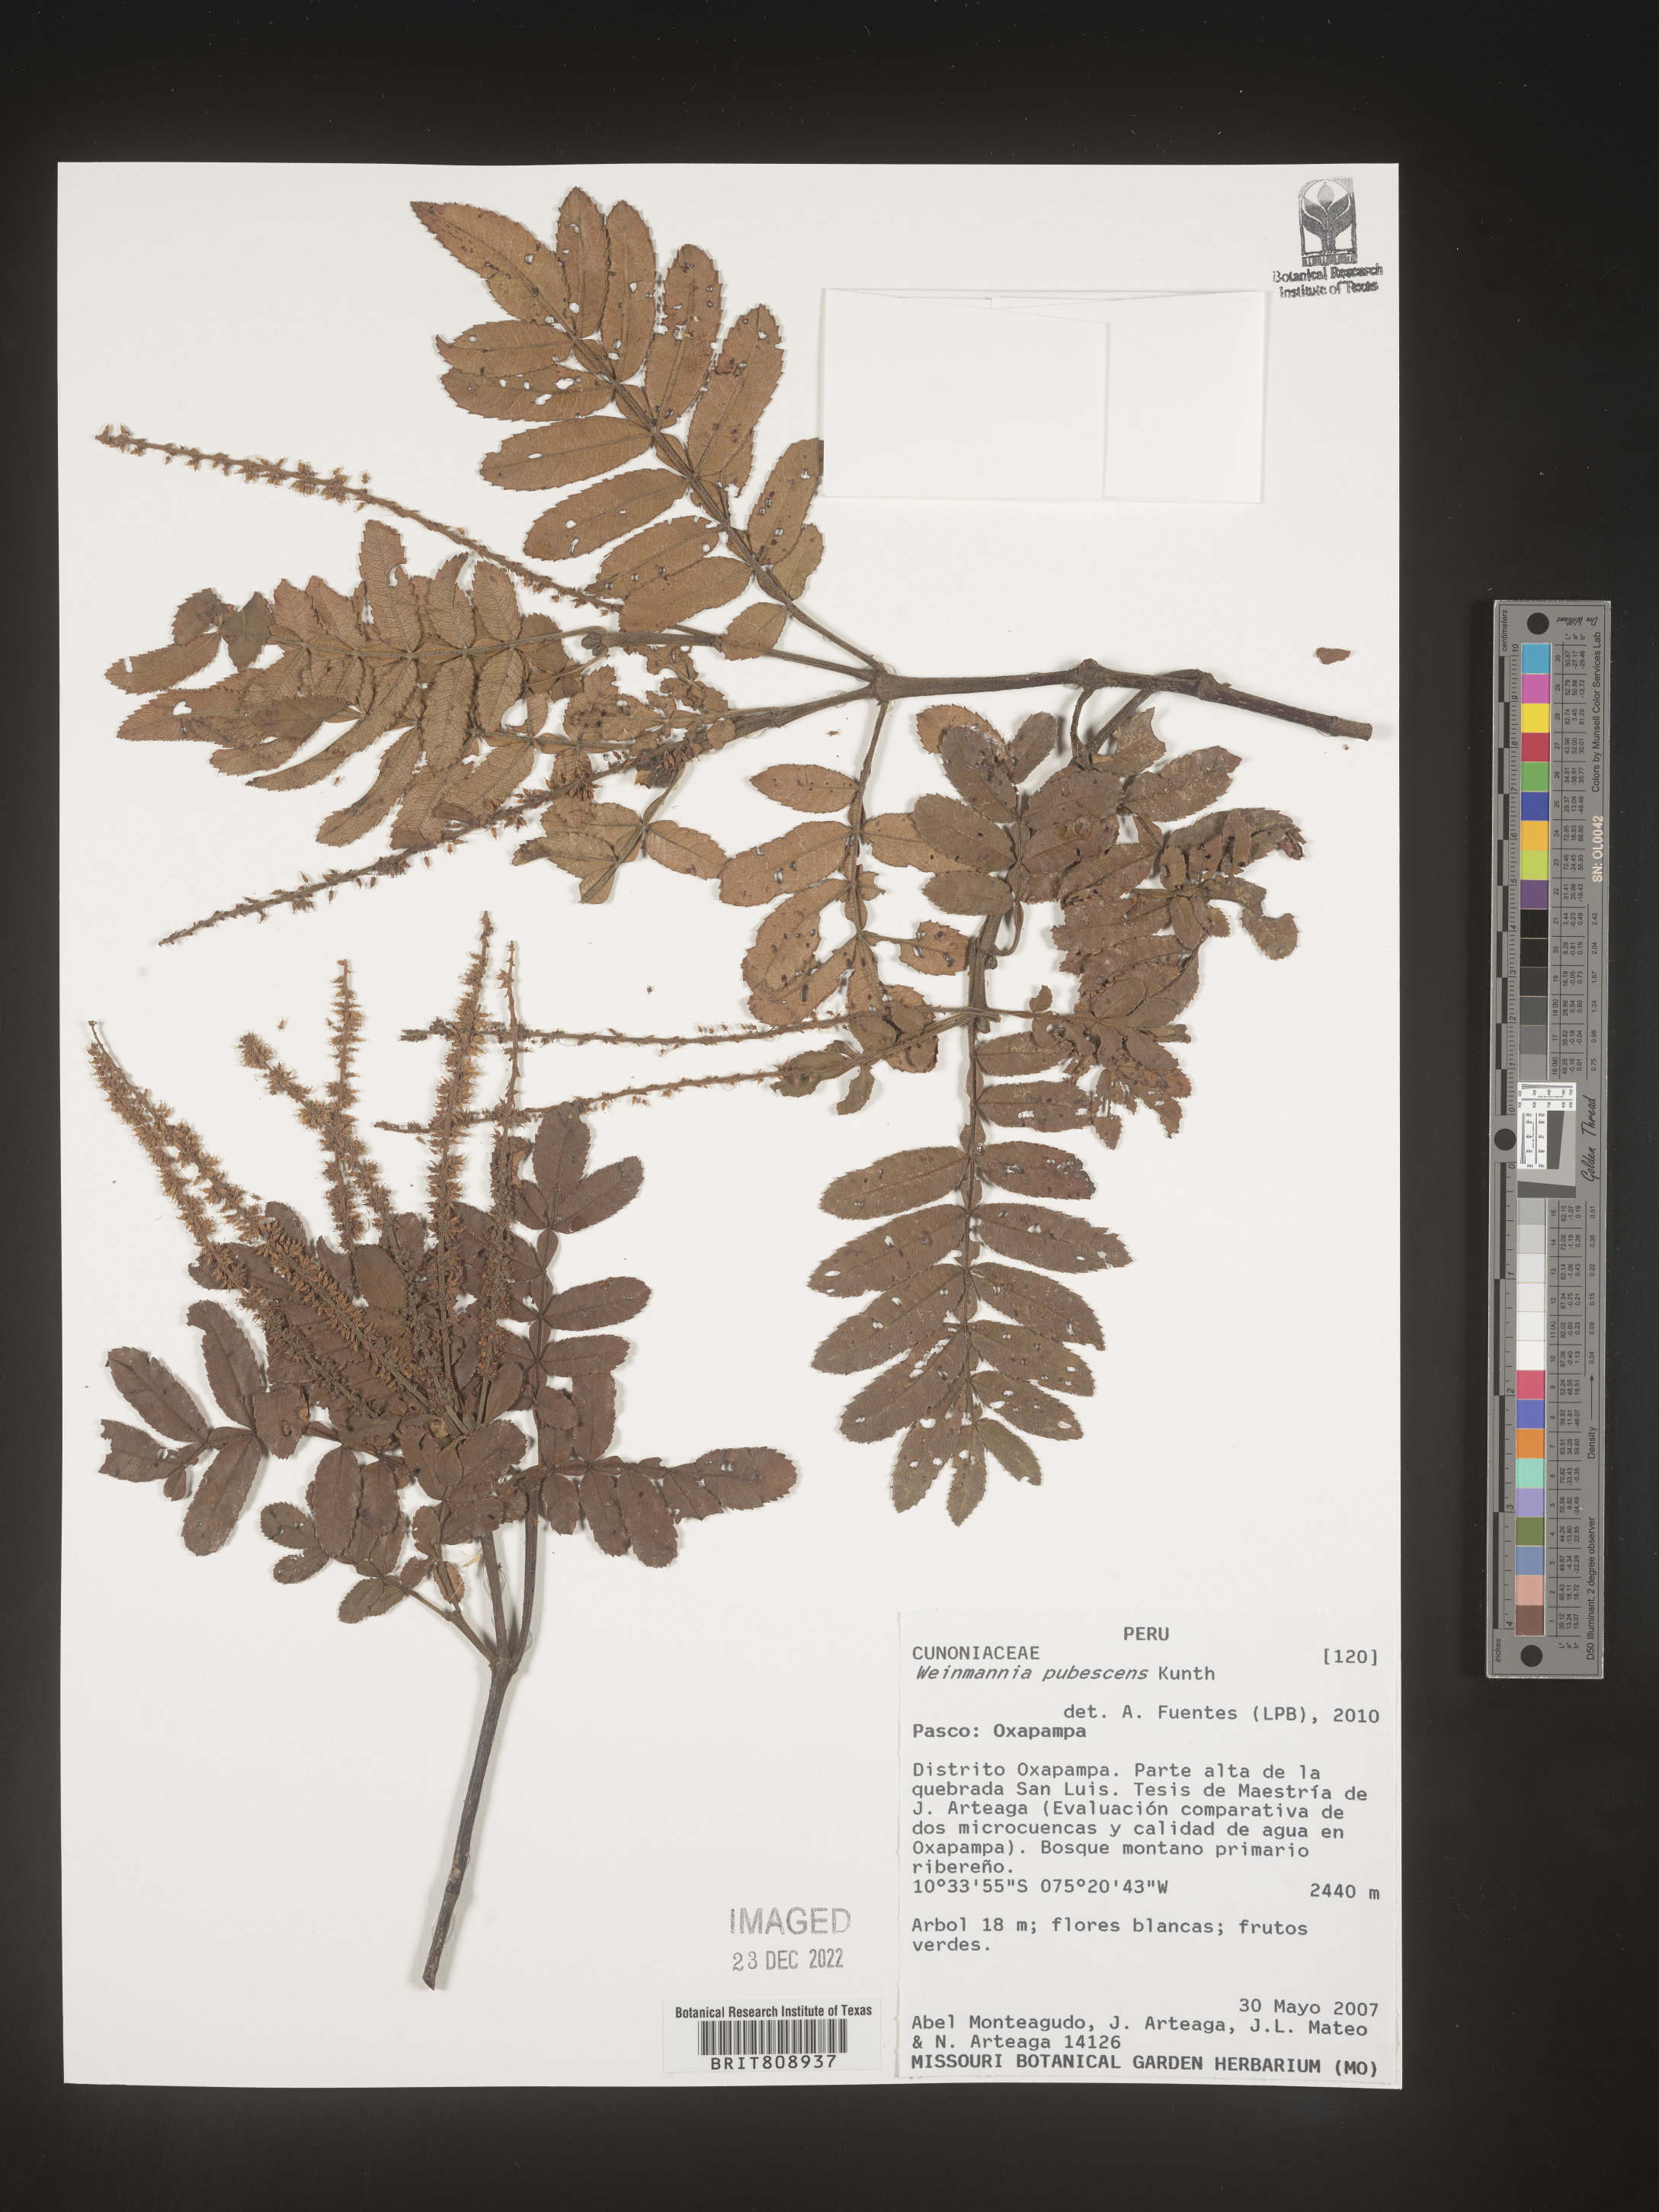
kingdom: Plantae
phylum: Tracheophyta
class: Magnoliopsida
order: Oxalidales
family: Cunoniaceae
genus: Weinmannia
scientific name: Weinmannia
